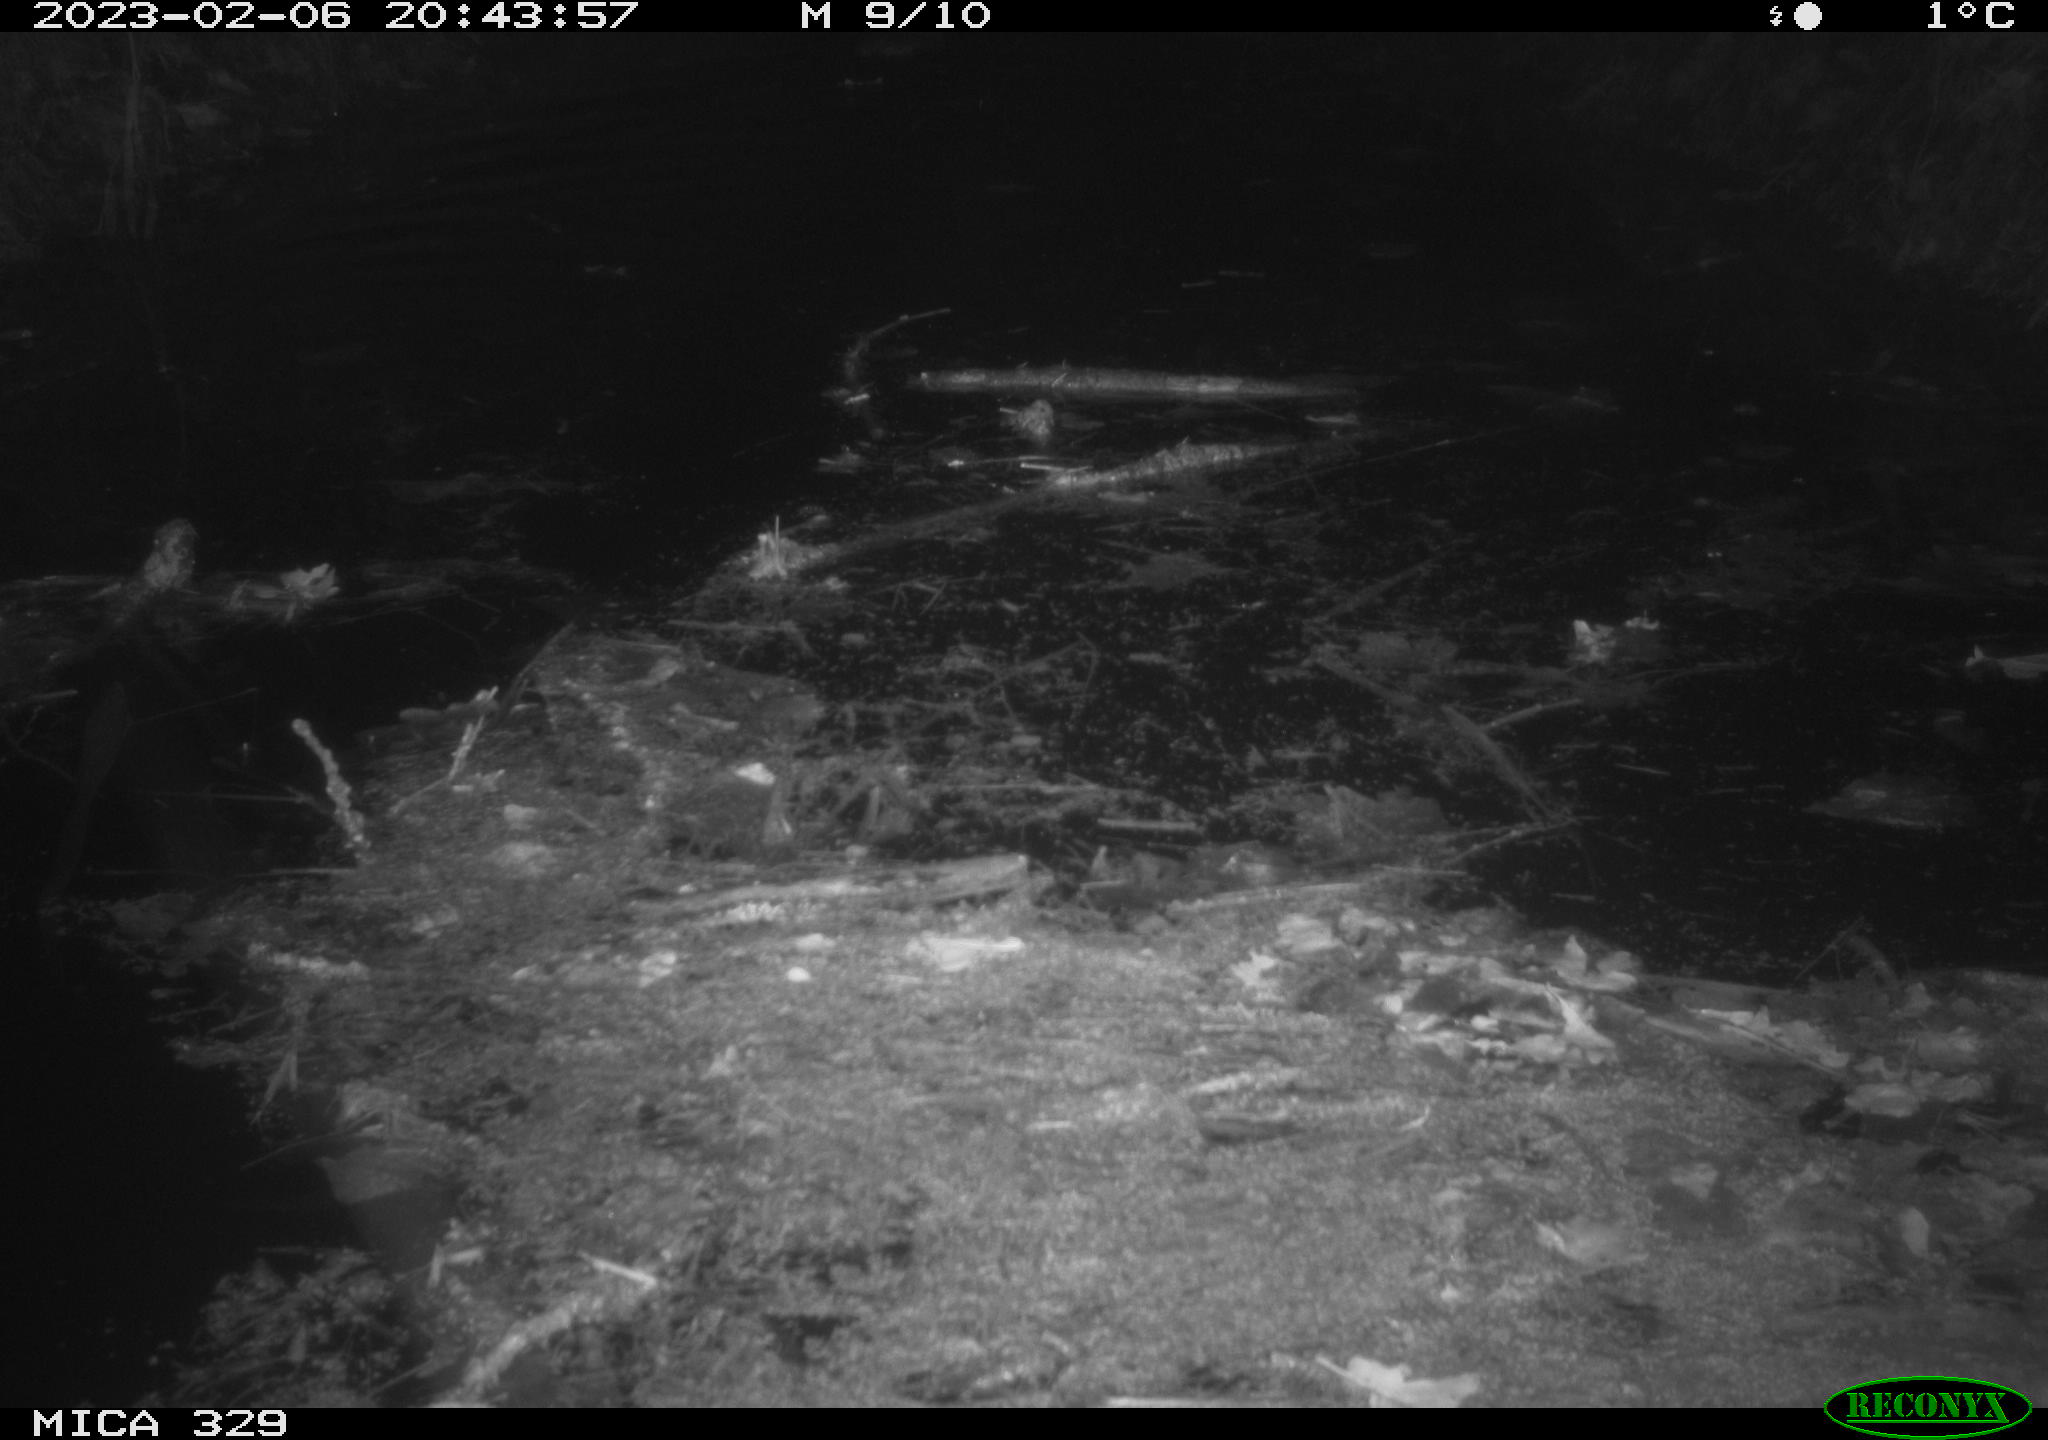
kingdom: Animalia
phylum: Chordata
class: Mammalia
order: Rodentia
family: Cricetidae
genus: Ondatra
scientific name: Ondatra zibethicus
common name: Muskrat
